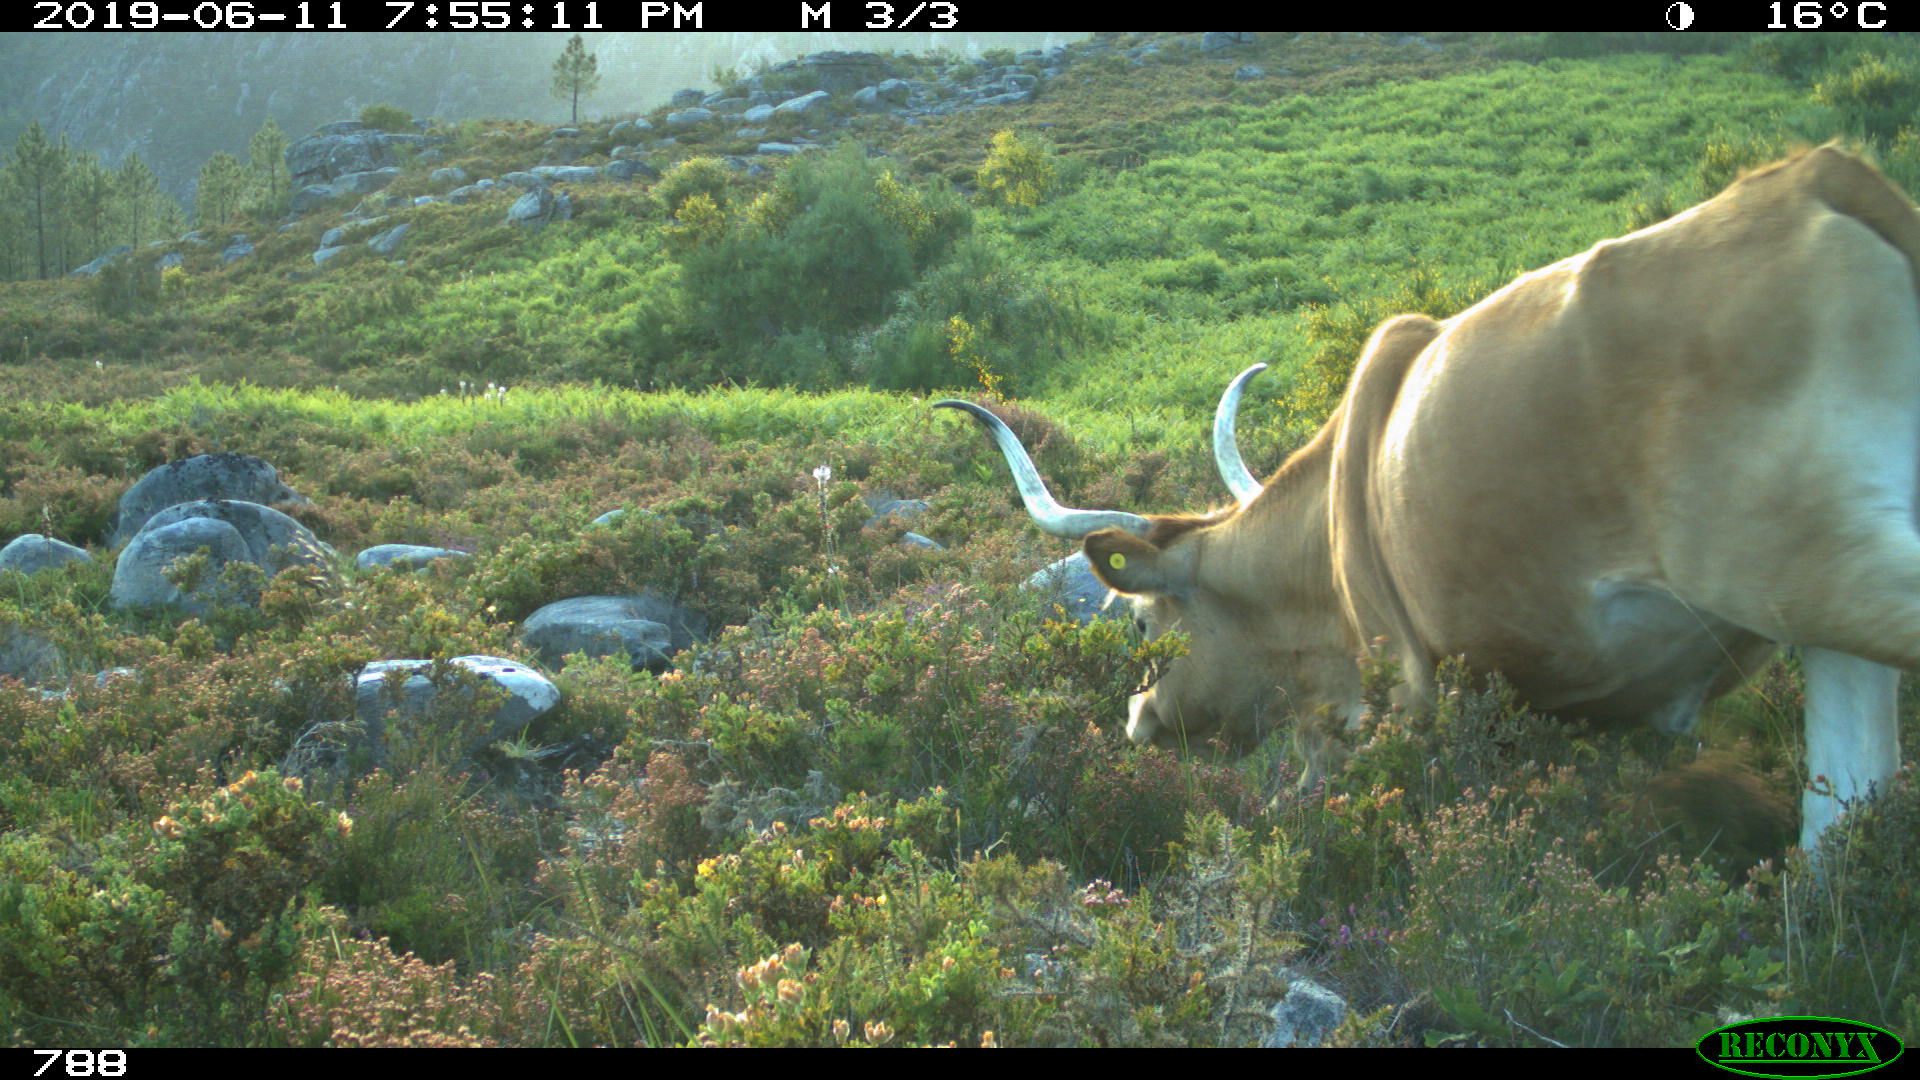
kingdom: Animalia
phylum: Chordata
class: Mammalia
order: Artiodactyla
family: Bovidae
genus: Bos
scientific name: Bos taurus
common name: Domesticated cattle
